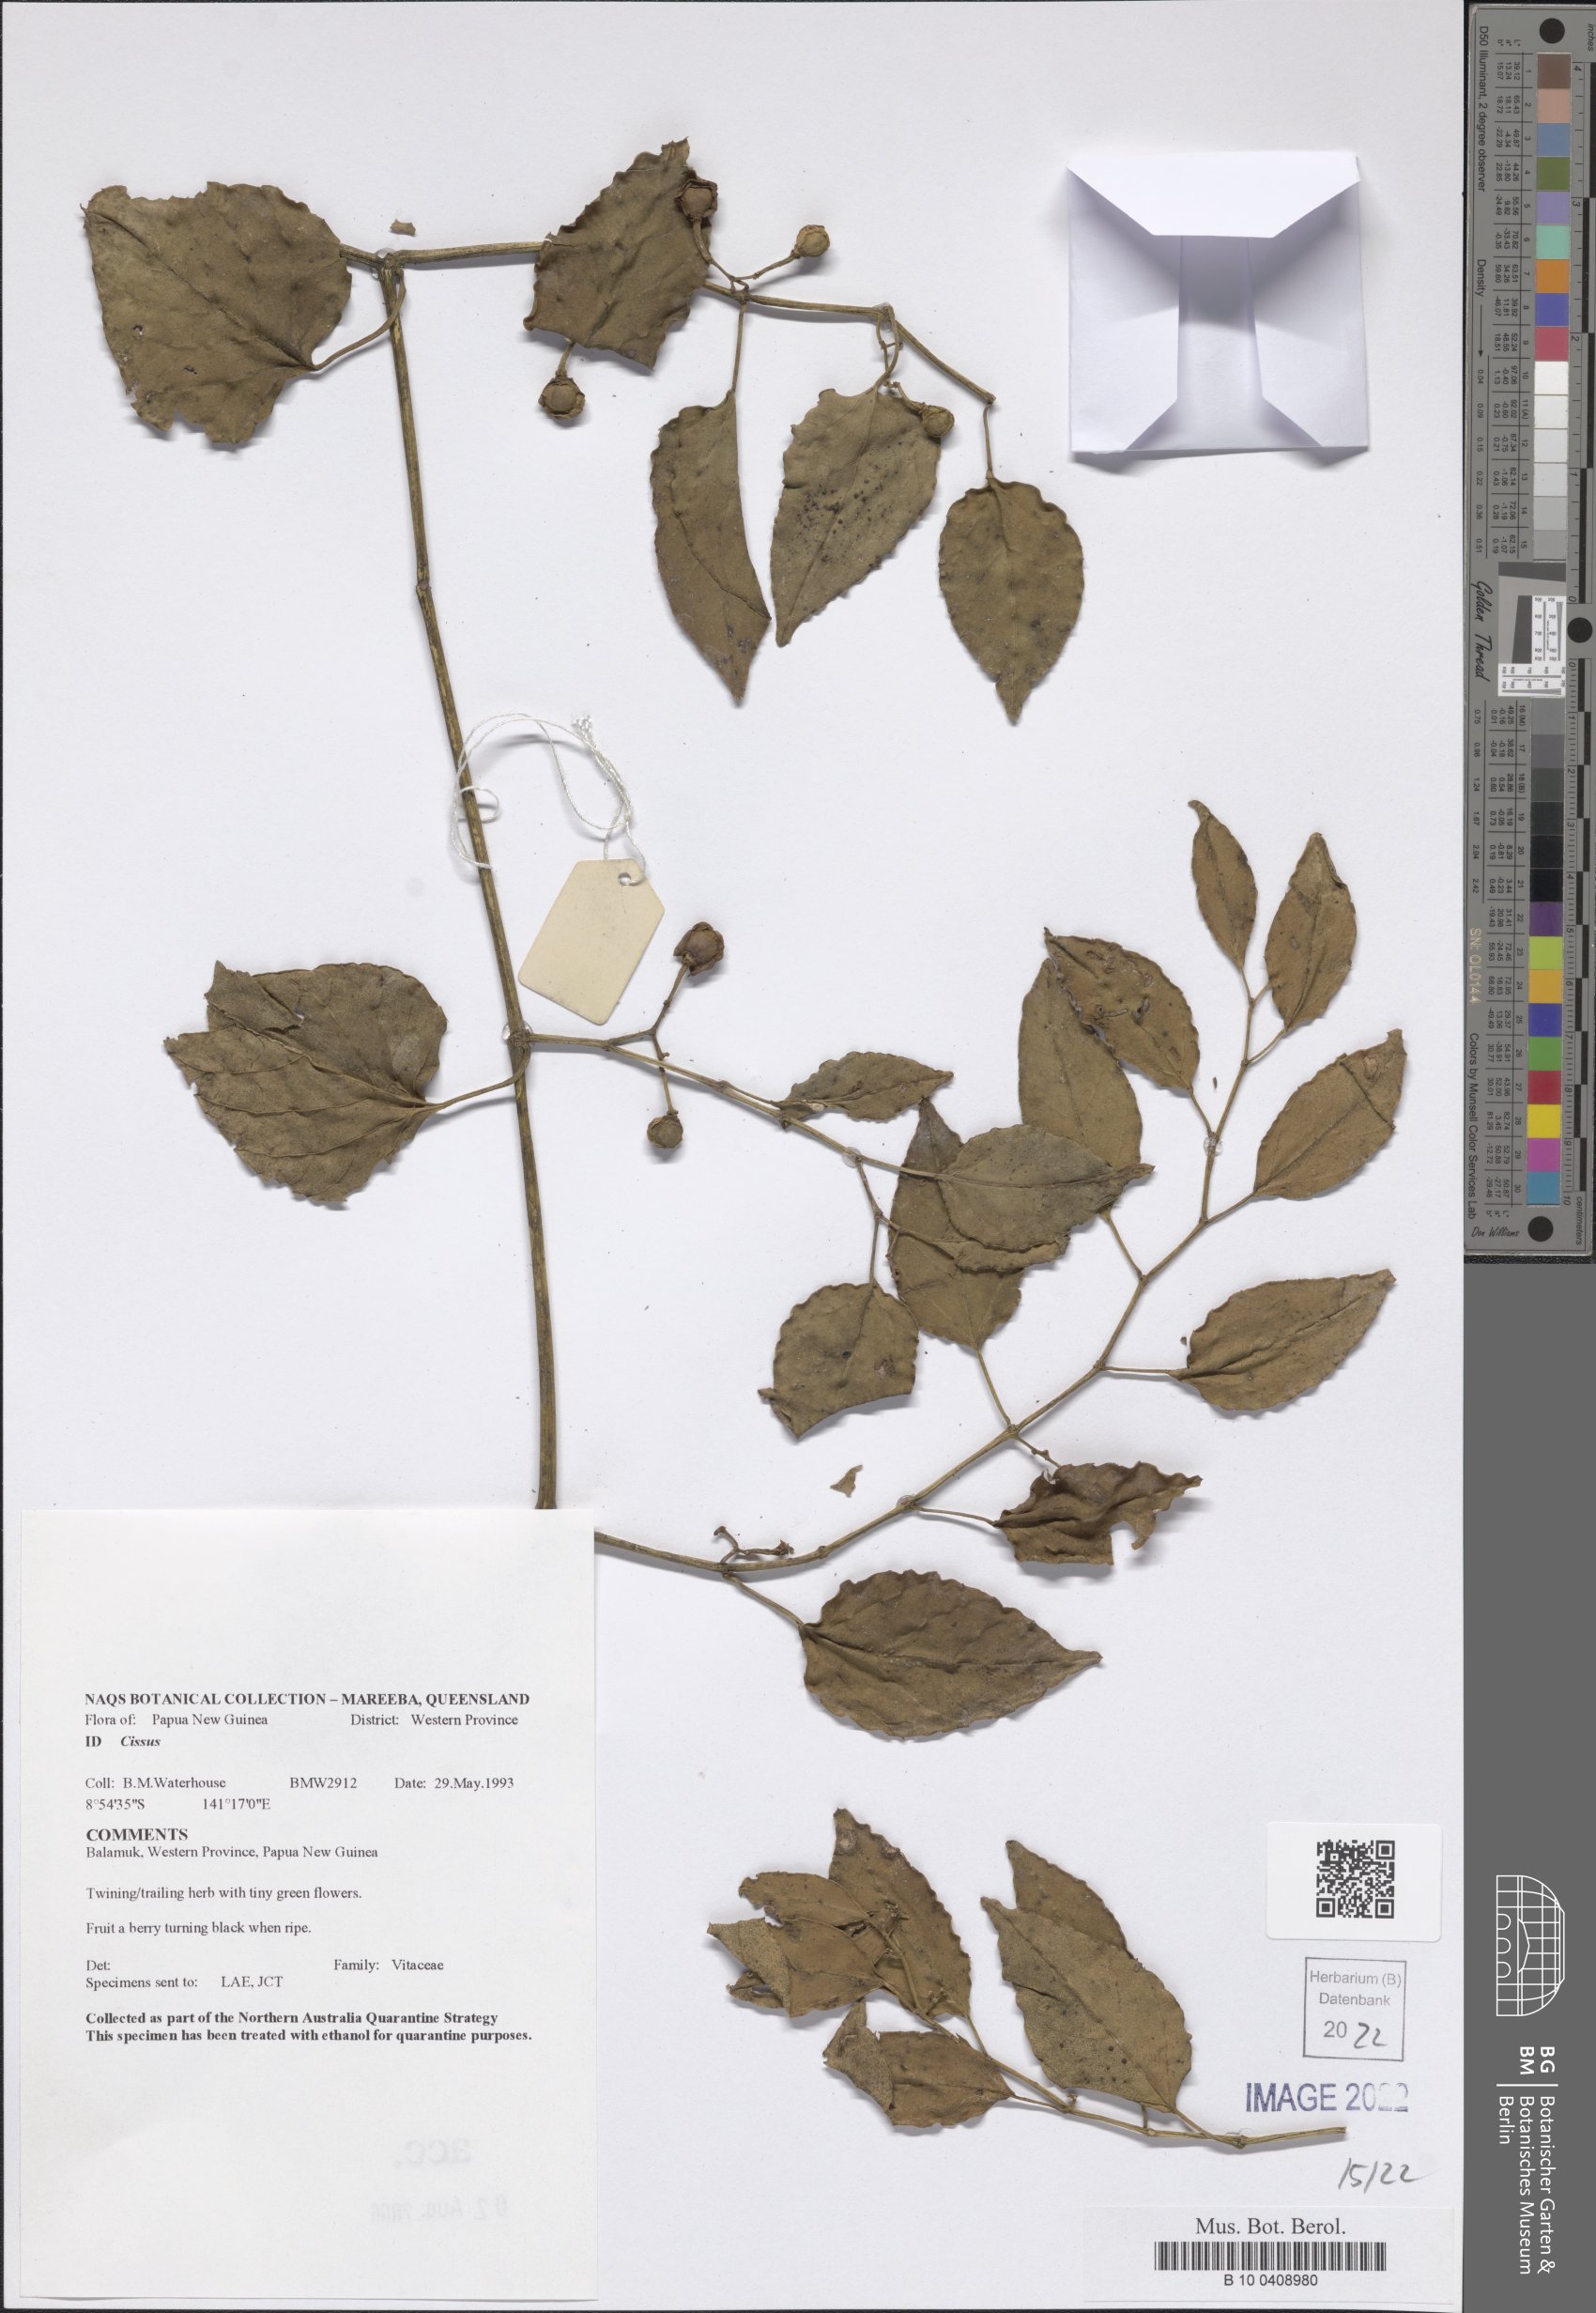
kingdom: Plantae
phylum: Tracheophyta
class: Magnoliopsida
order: Vitales
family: Vitaceae
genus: Cissus
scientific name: Cissus
